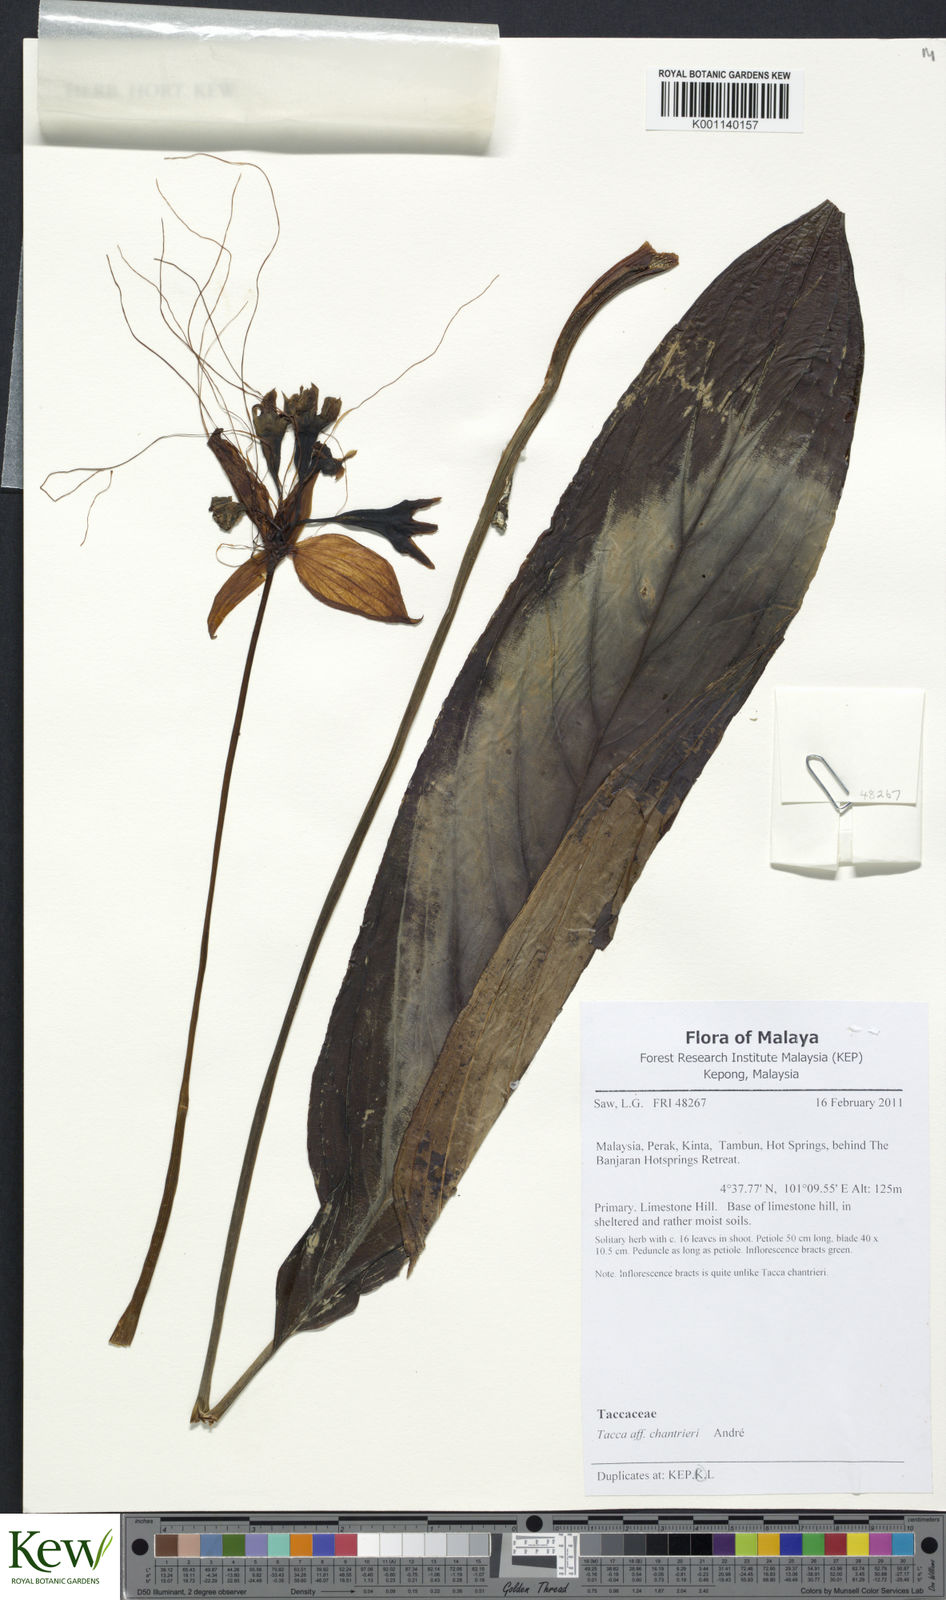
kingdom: Plantae
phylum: Tracheophyta
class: Liliopsida
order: Dioscoreales
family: Dioscoreaceae
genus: Tacca
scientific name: Tacca
